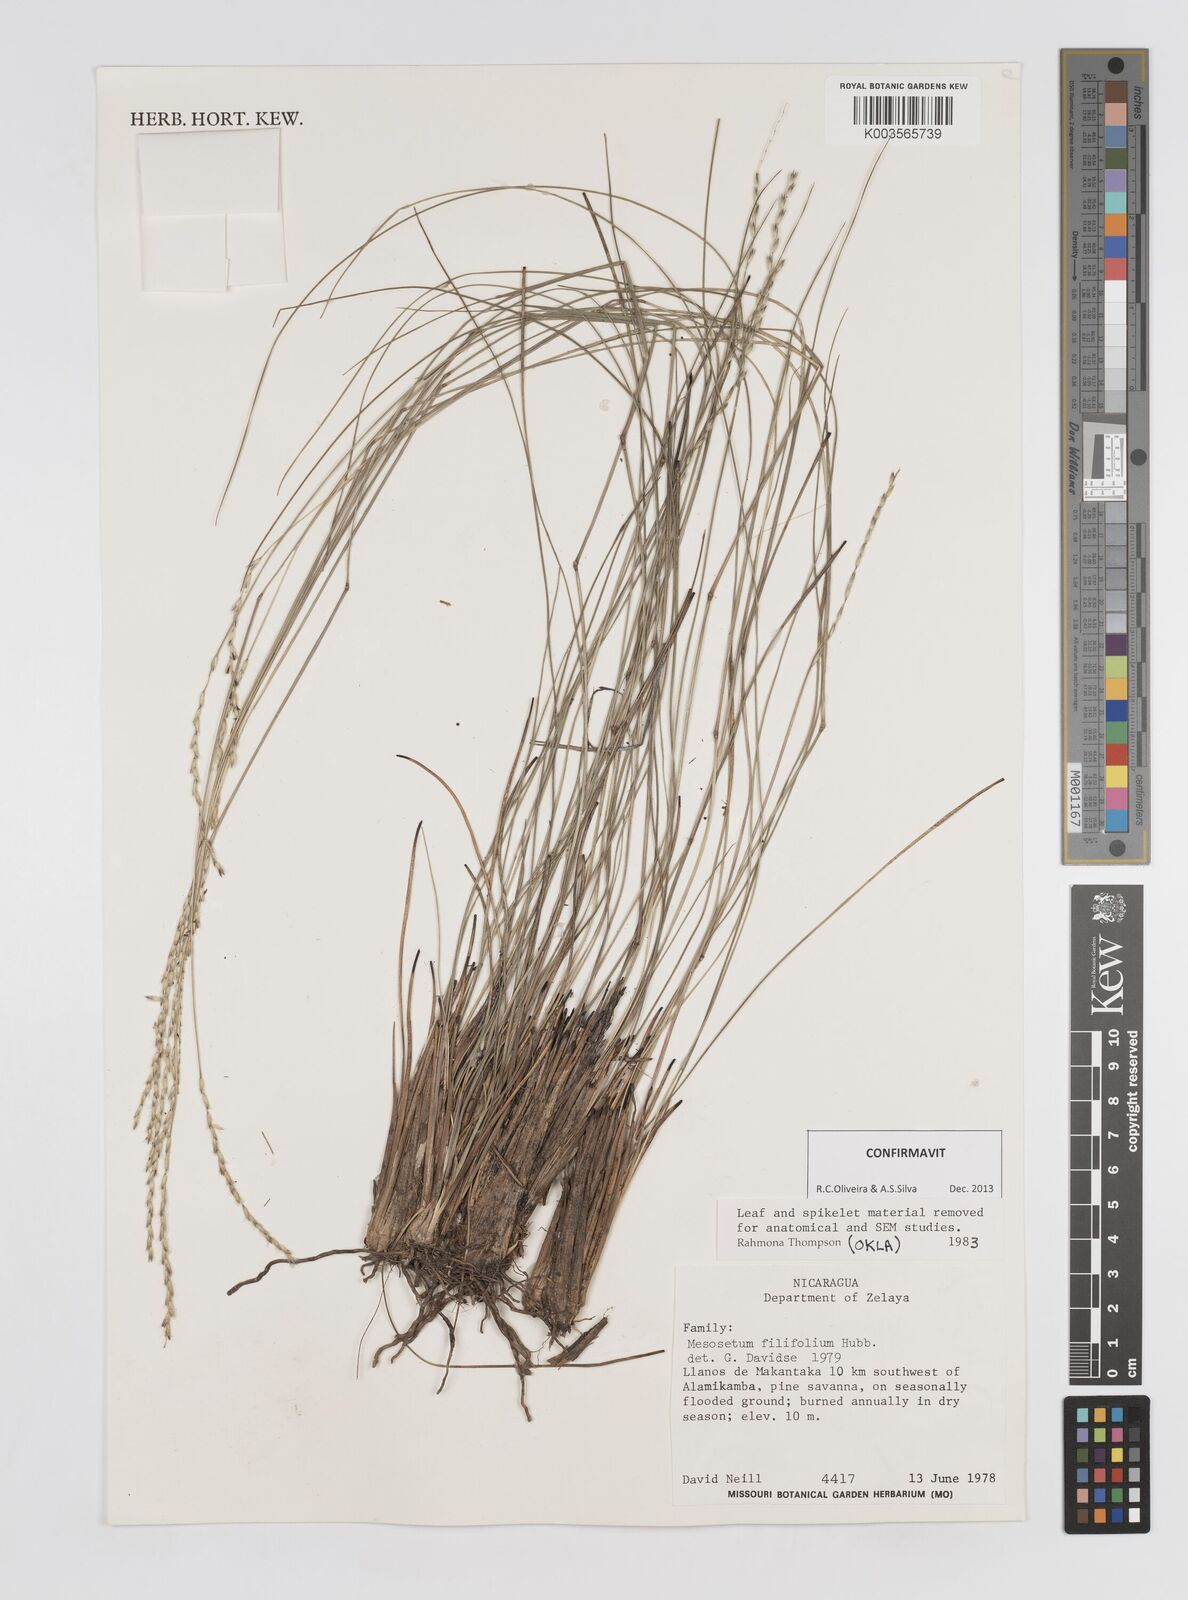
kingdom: Plantae
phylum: Tracheophyta
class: Liliopsida
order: Poales
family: Poaceae
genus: Mesosetum
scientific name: Mesosetum filifolium
